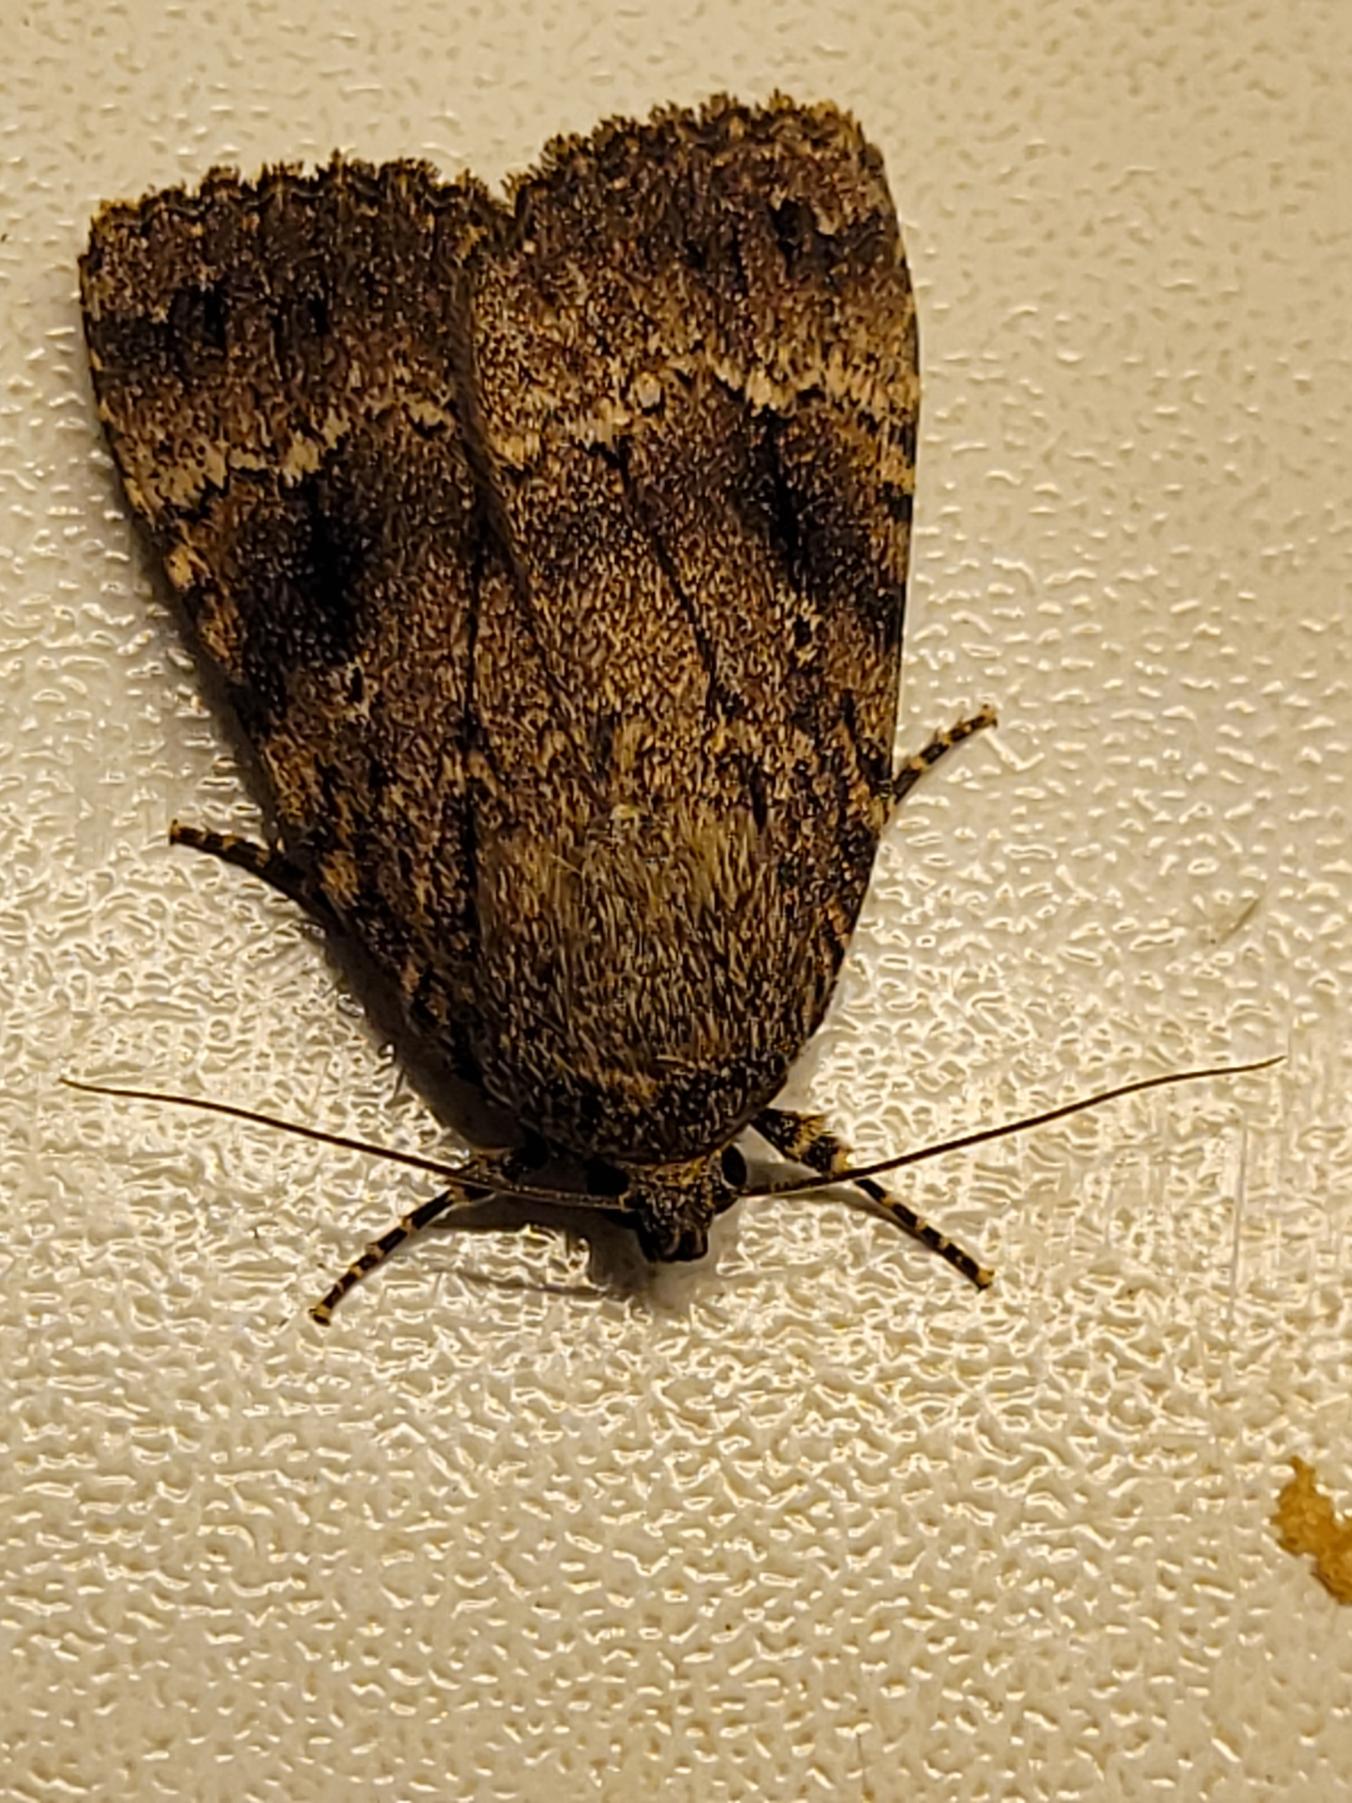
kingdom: Animalia
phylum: Arthropoda
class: Insecta
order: Lepidoptera
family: Noctuidae
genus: Amphipyra
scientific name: Amphipyra pyramidea
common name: Pyramideugle
